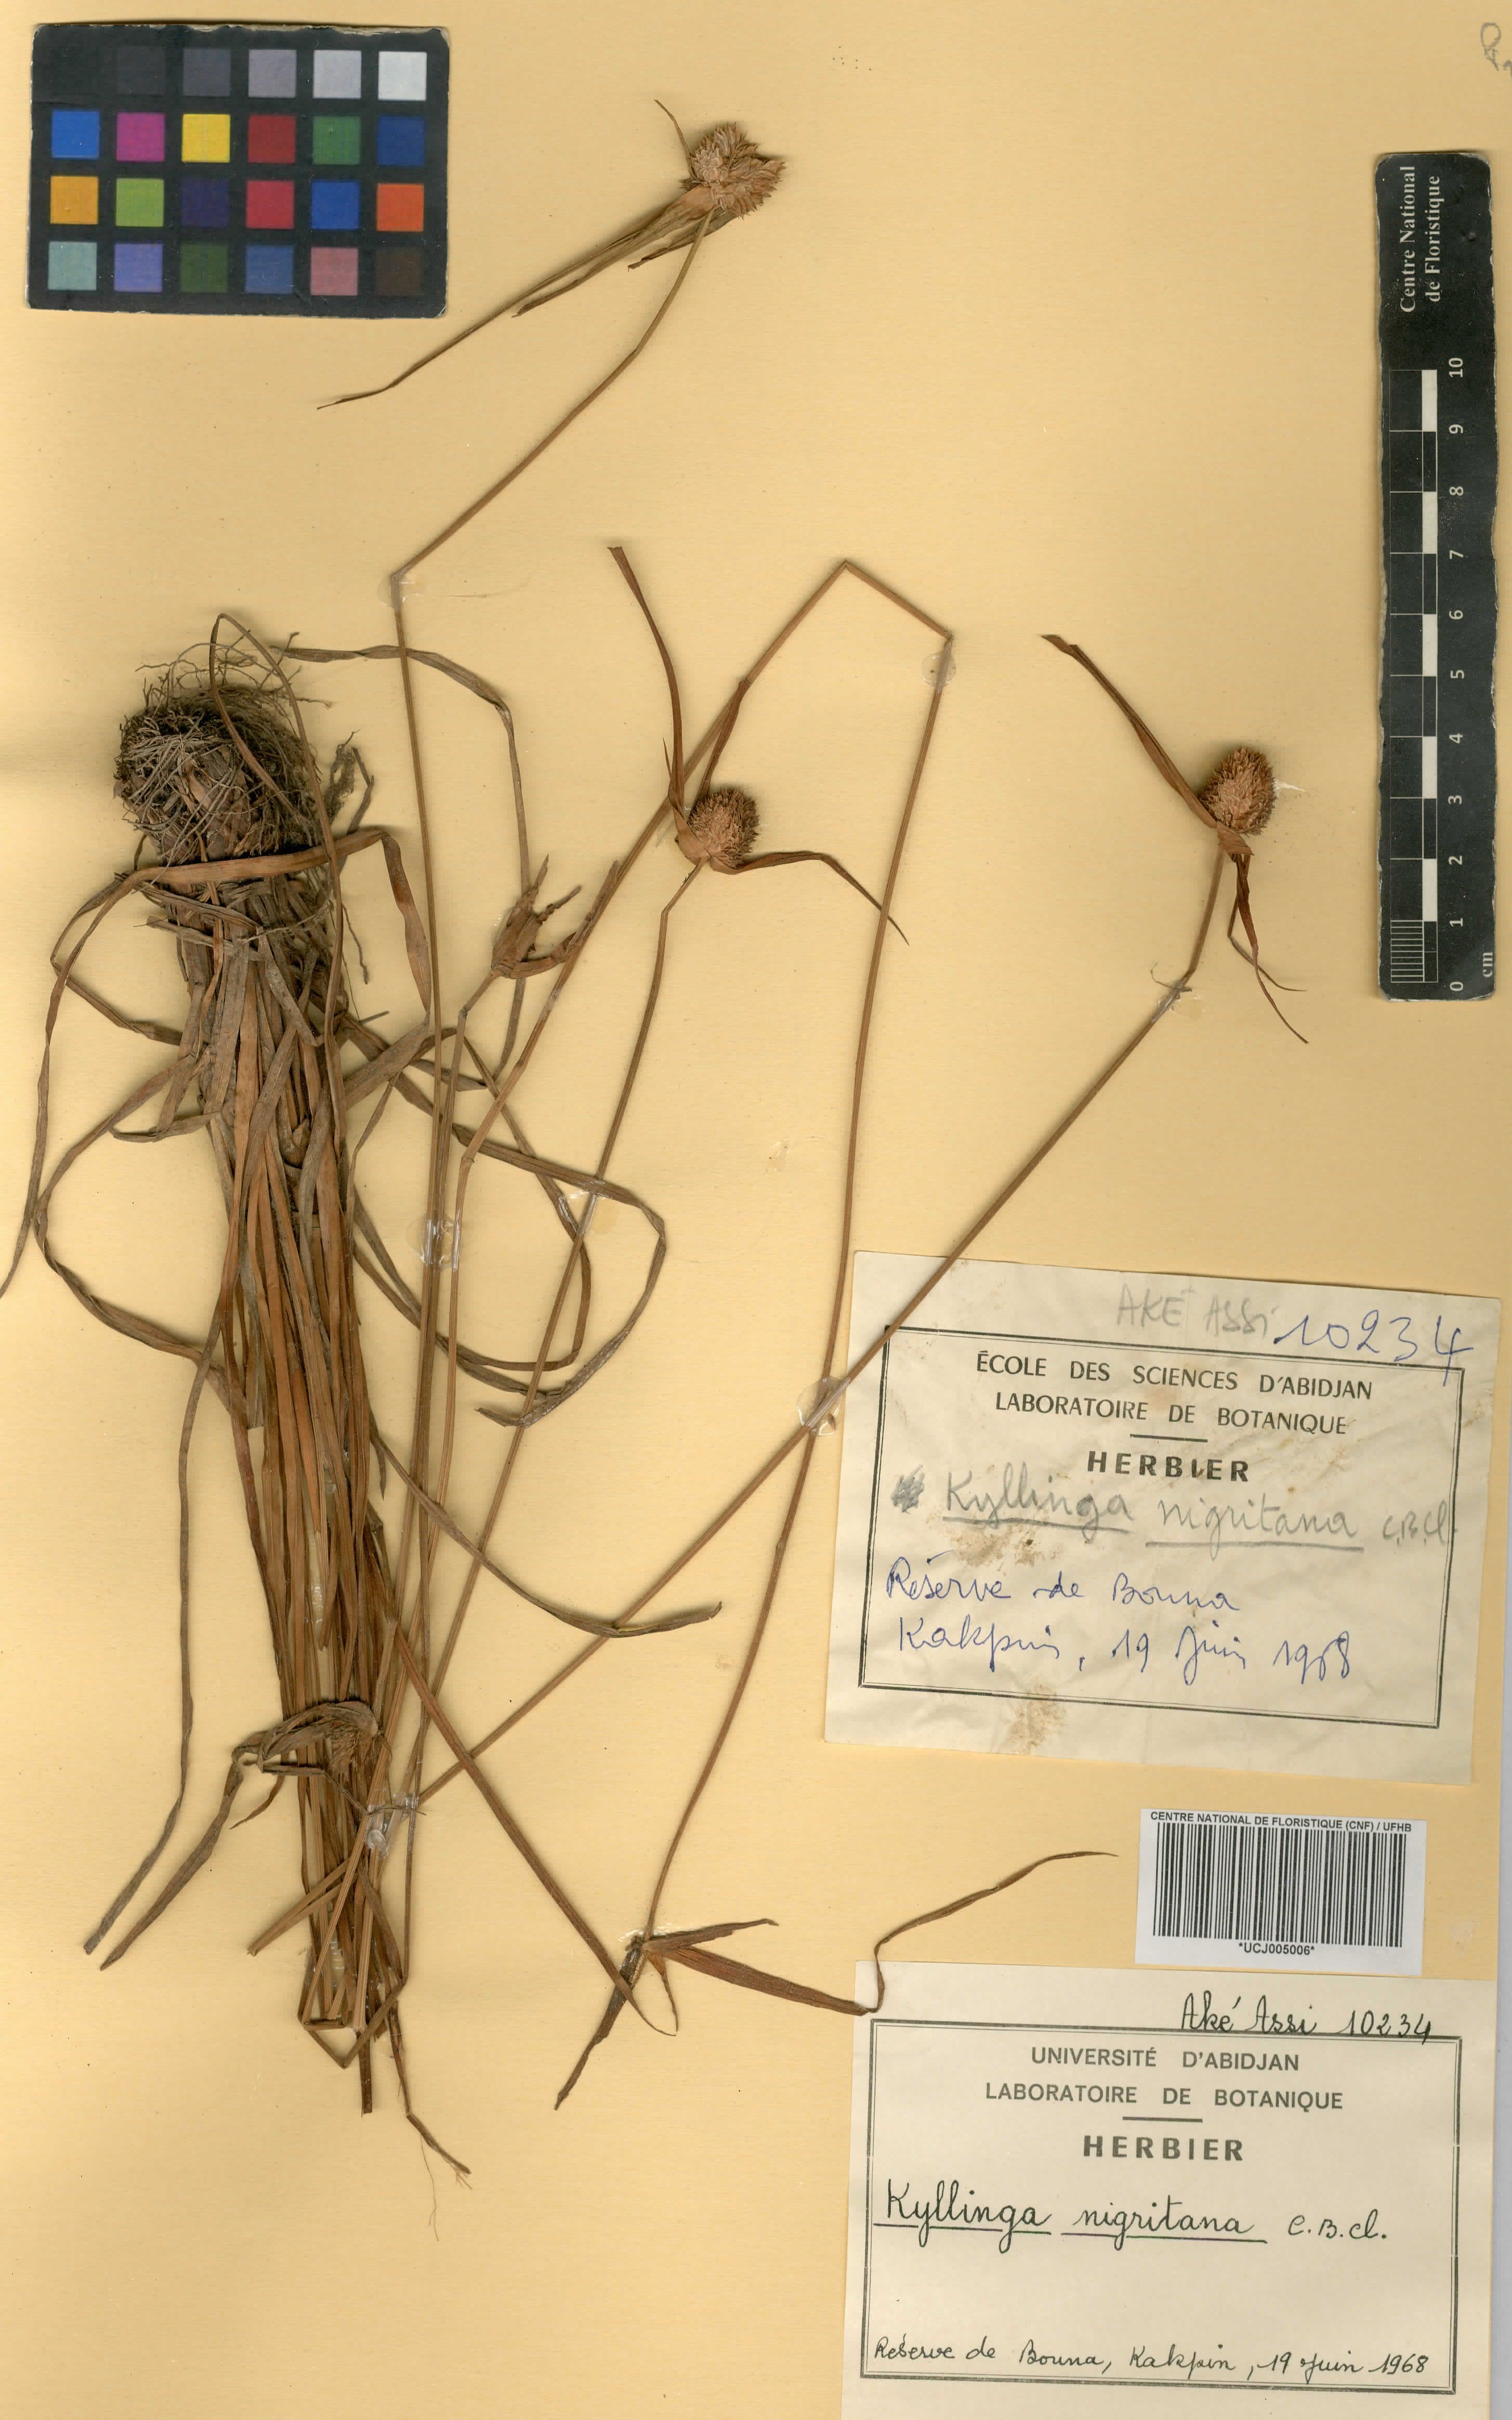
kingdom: Plantae
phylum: Tracheophyta
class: Liliopsida
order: Poales
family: Cyperaceae
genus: Cyperus
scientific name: Cyperus alatus
